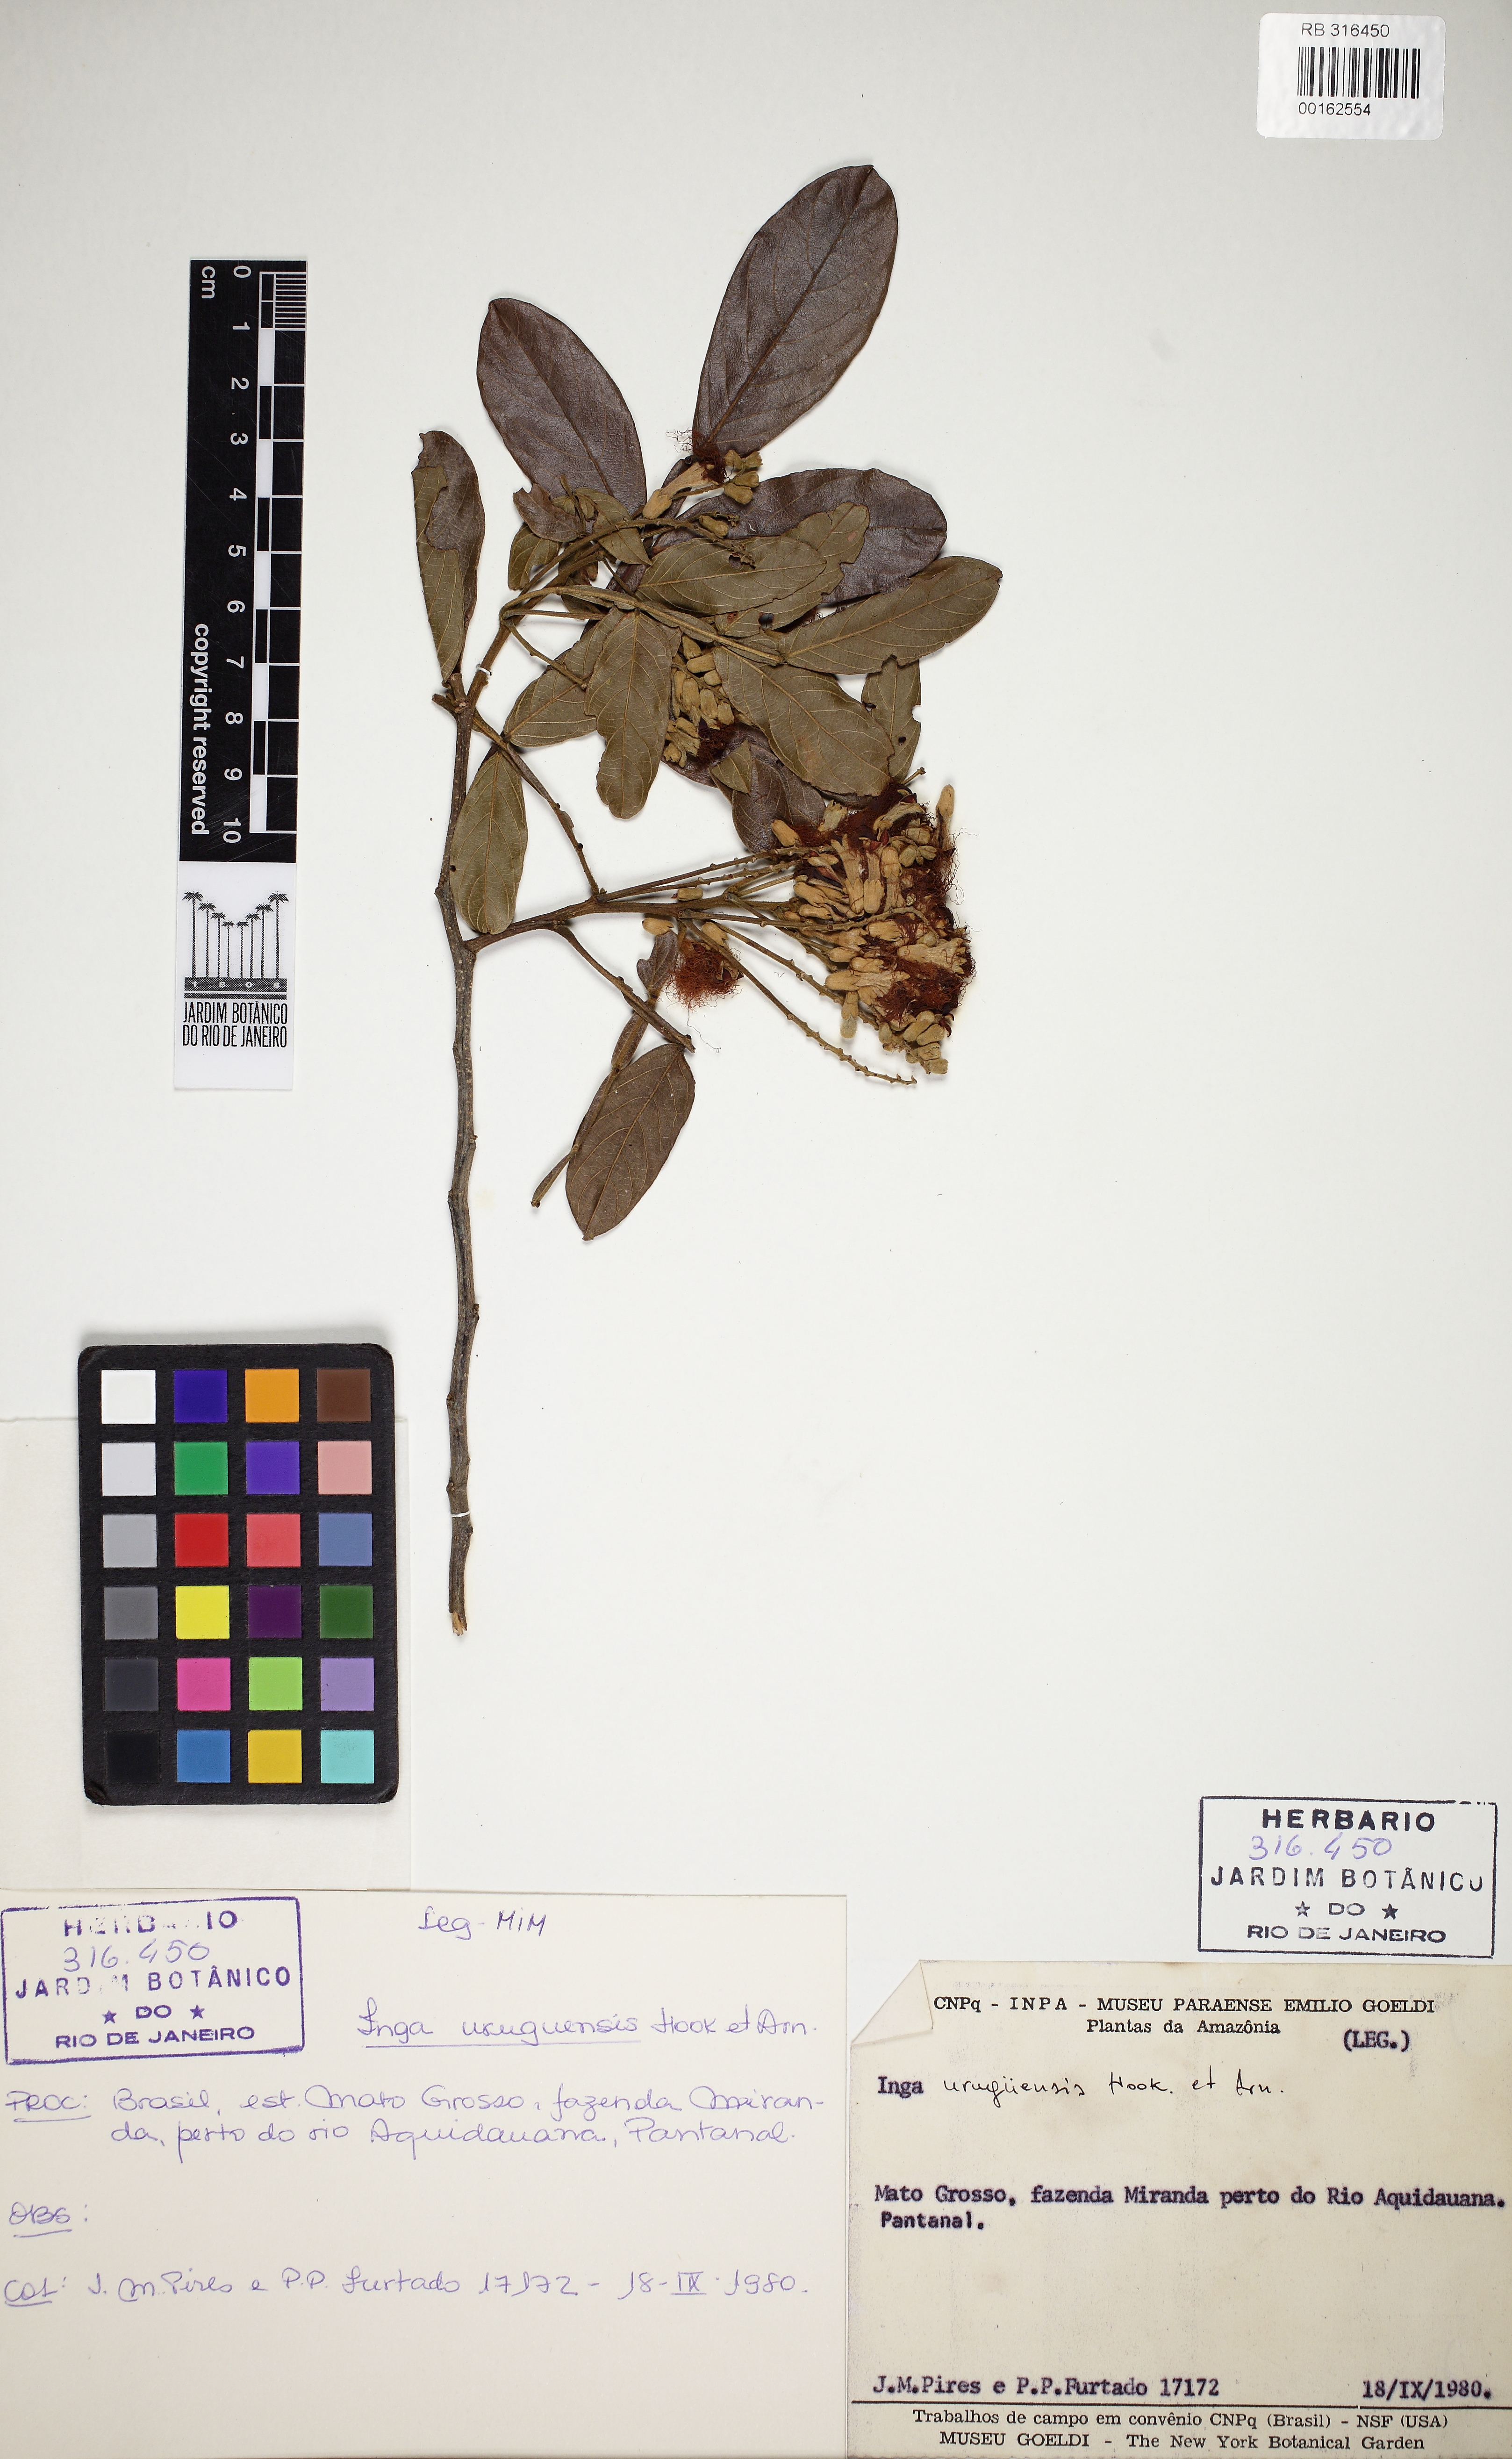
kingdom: Plantae
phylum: Tracheophyta
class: Magnoliopsida
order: Fabales
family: Fabaceae
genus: Inga
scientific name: Inga affinis
